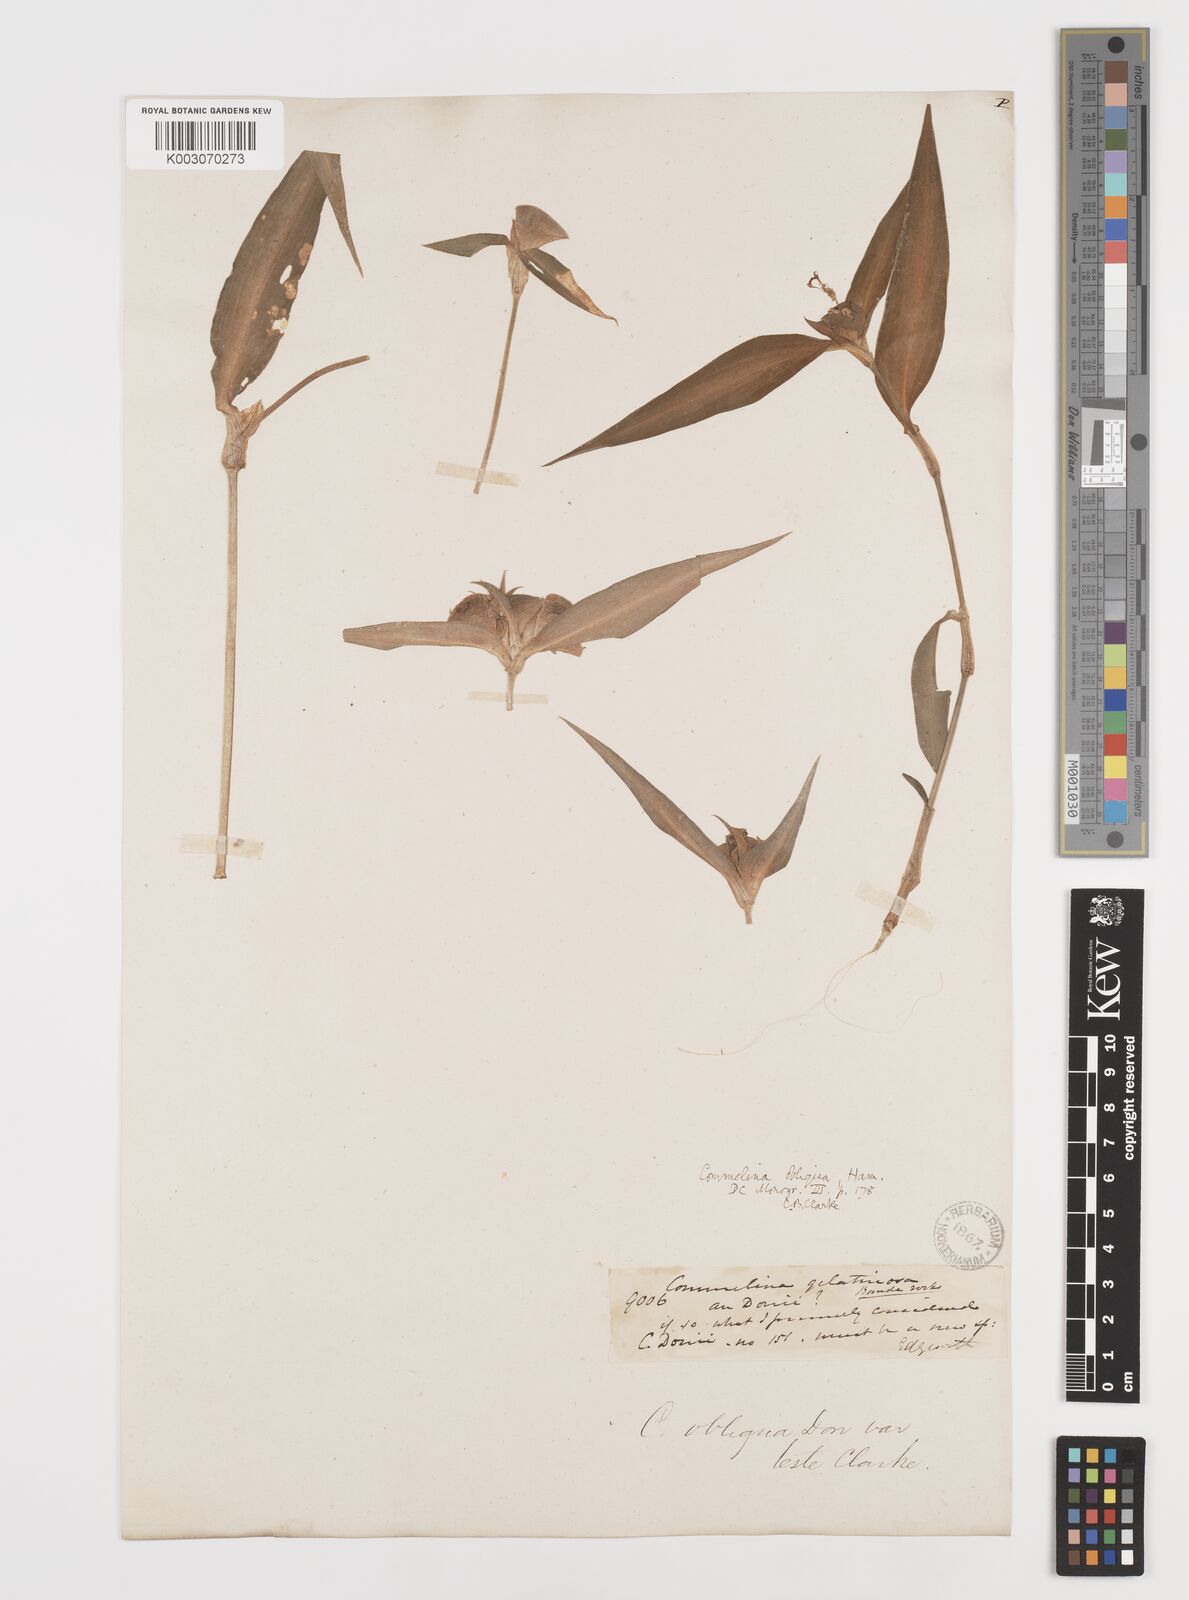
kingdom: Plantae
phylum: Tracheophyta
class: Liliopsida
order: Commelinales
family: Commelinaceae
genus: Commelina
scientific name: Commelina paludosa
